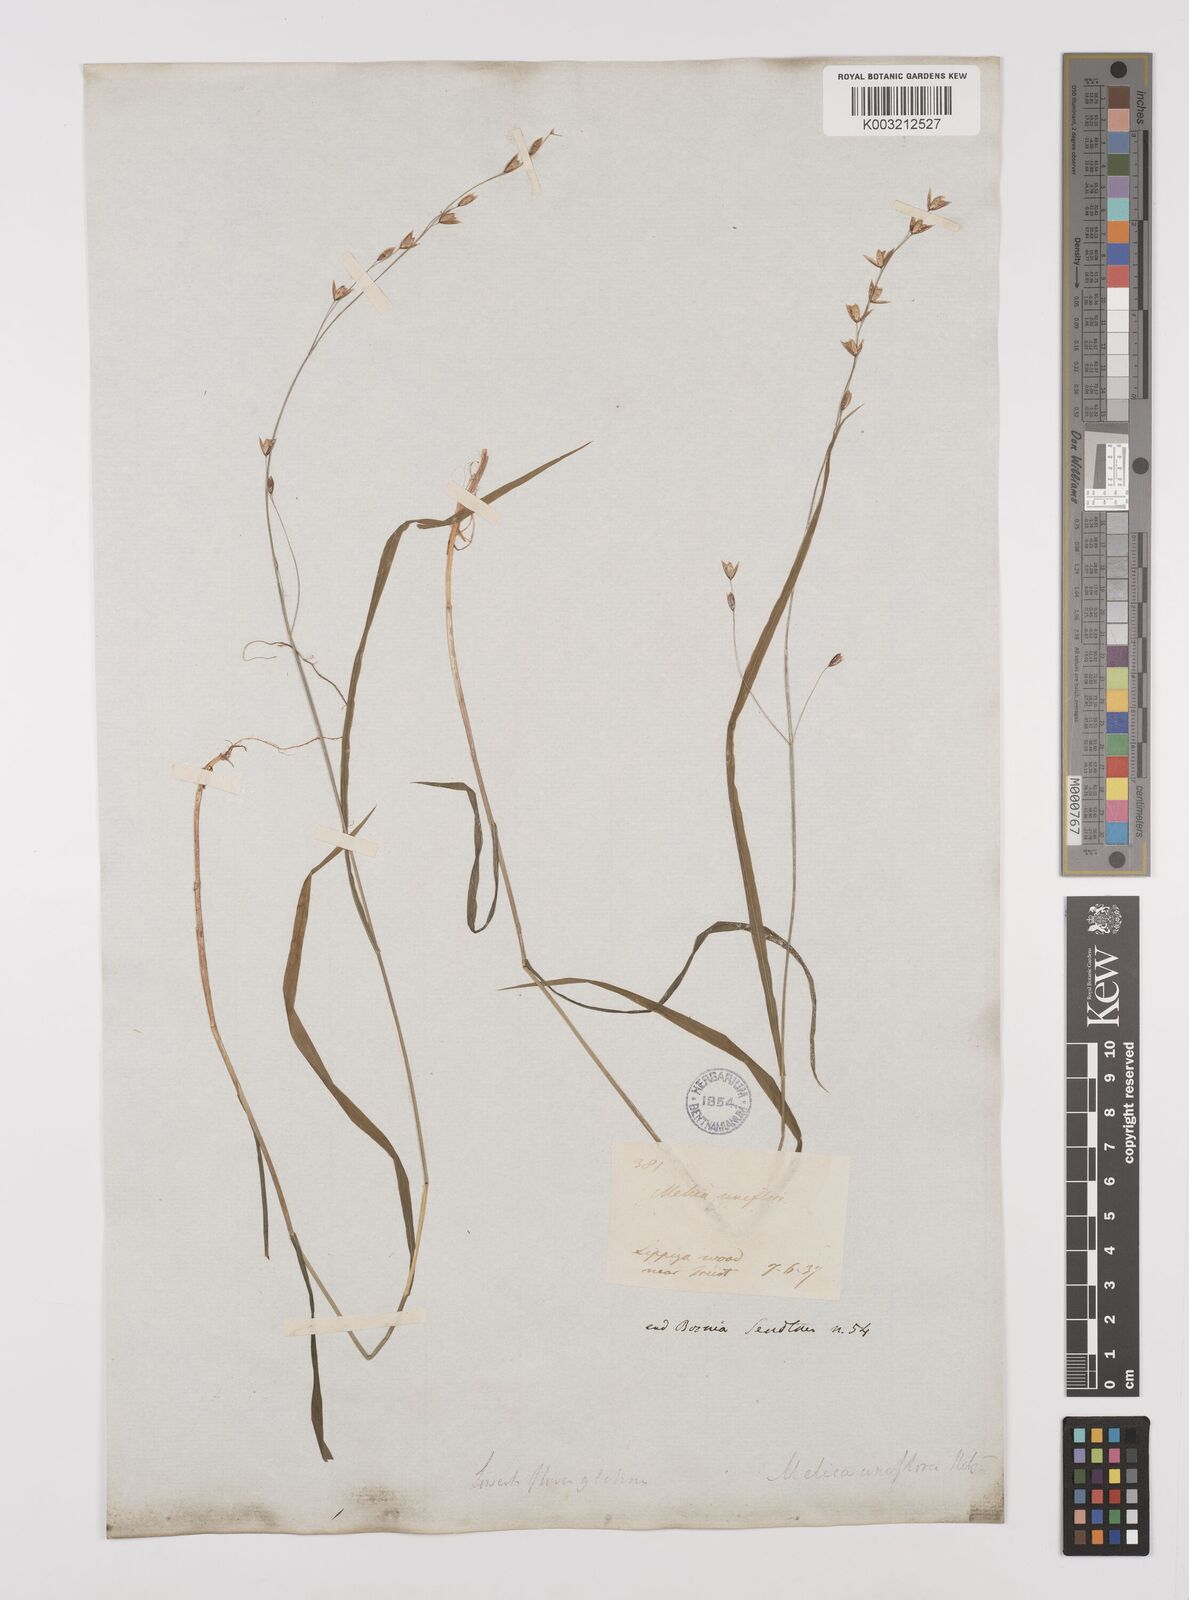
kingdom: Plantae
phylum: Tracheophyta
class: Liliopsida
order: Poales
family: Poaceae
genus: Melica
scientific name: Melica uniflora
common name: Wood melick
